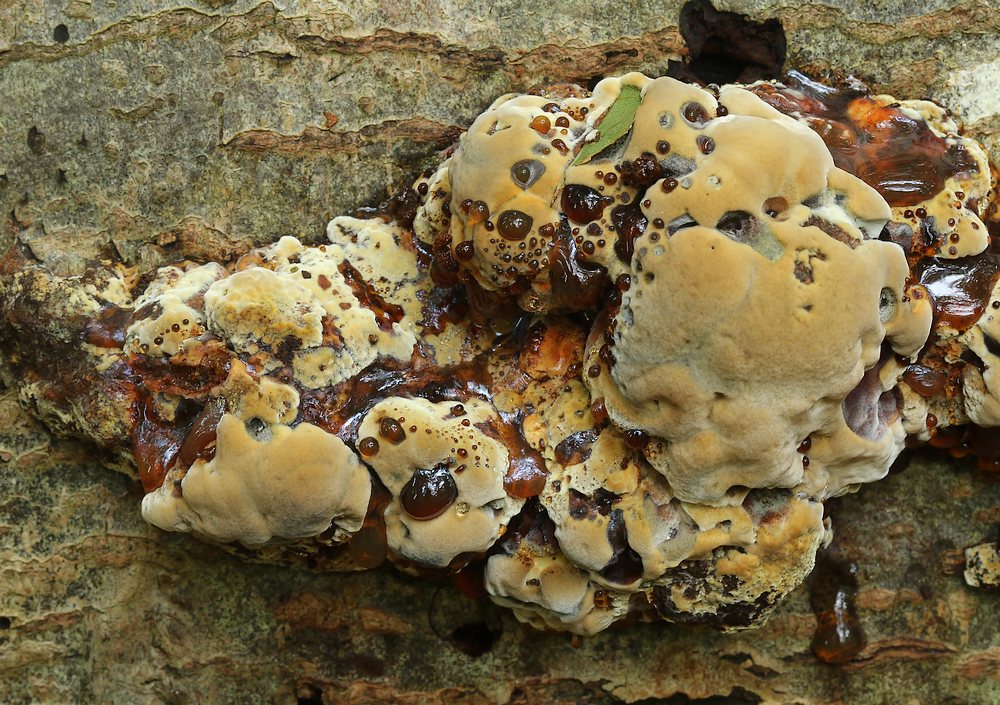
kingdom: Fungi
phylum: Basidiomycota
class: Agaricomycetes
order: Hymenochaetales
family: Hymenochaetaceae
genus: Xanthoporia
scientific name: Xanthoporia radiata
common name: elle-spejlporesvamp
